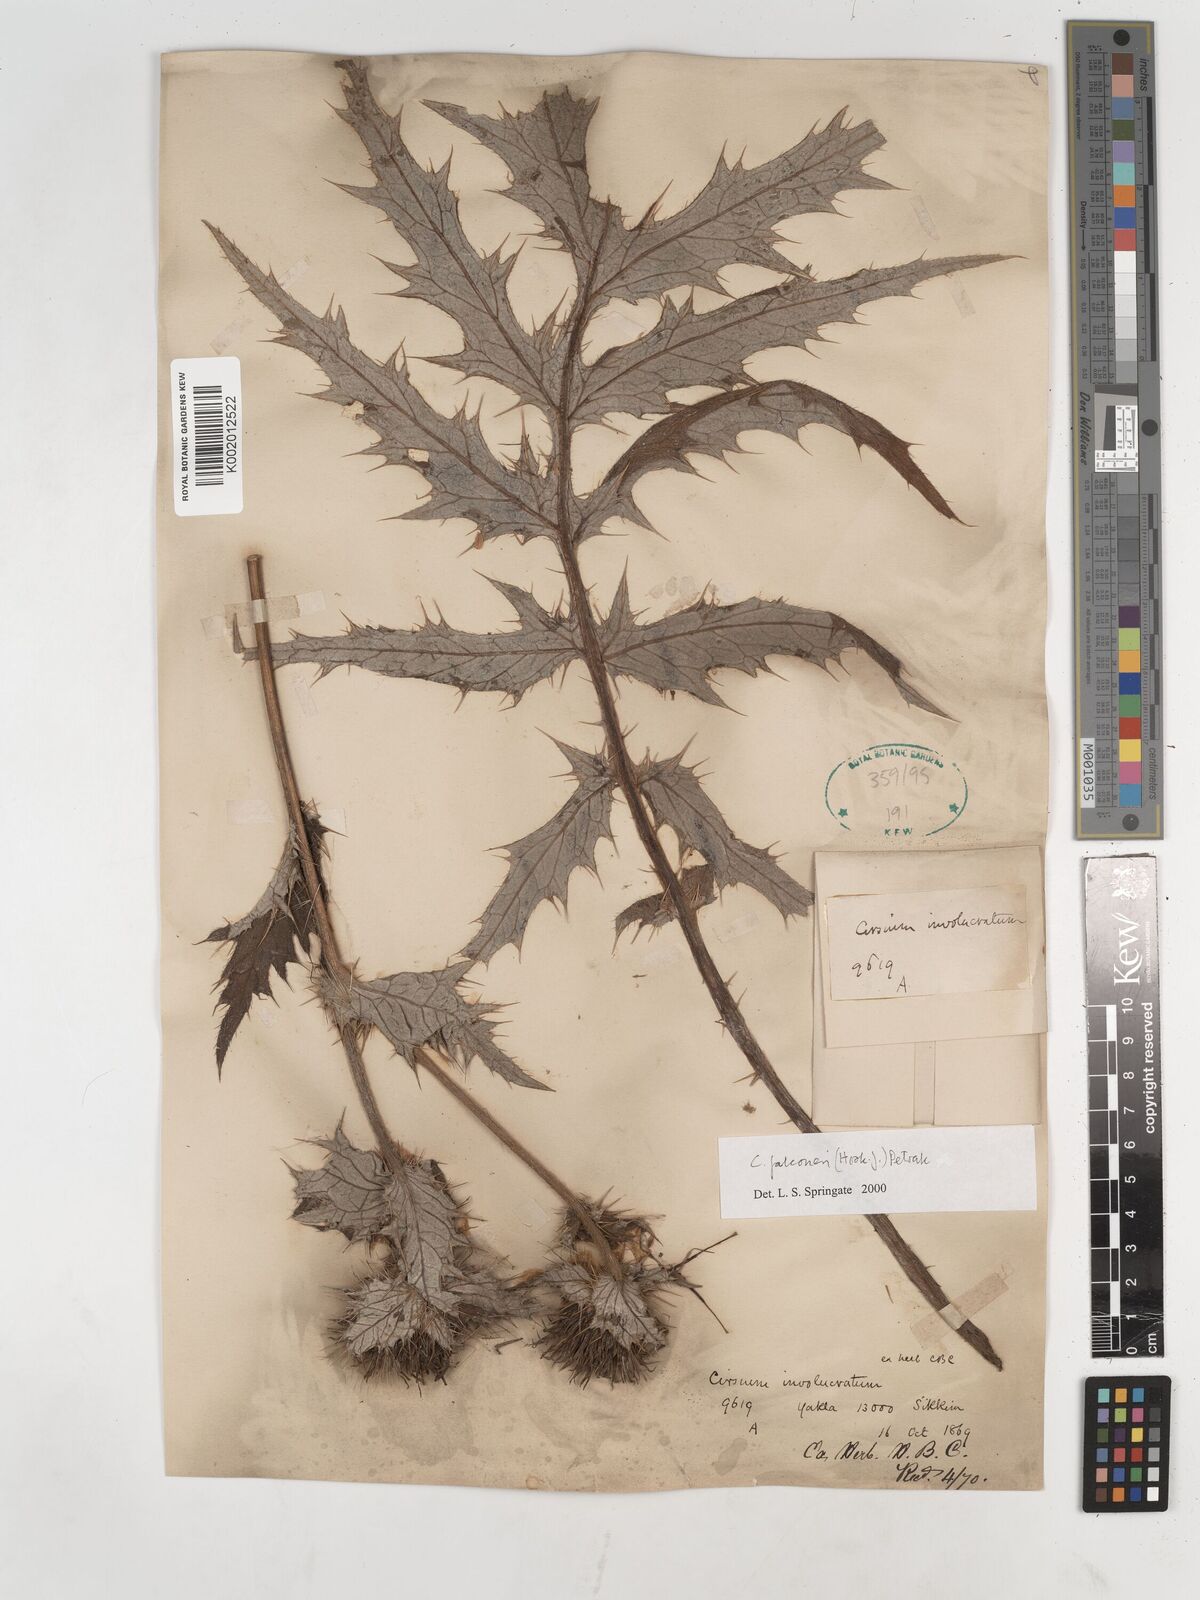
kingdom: Plantae
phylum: Tracheophyta
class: Magnoliopsida
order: Asterales
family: Asteraceae
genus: Cirsium
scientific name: Cirsium falconeri
